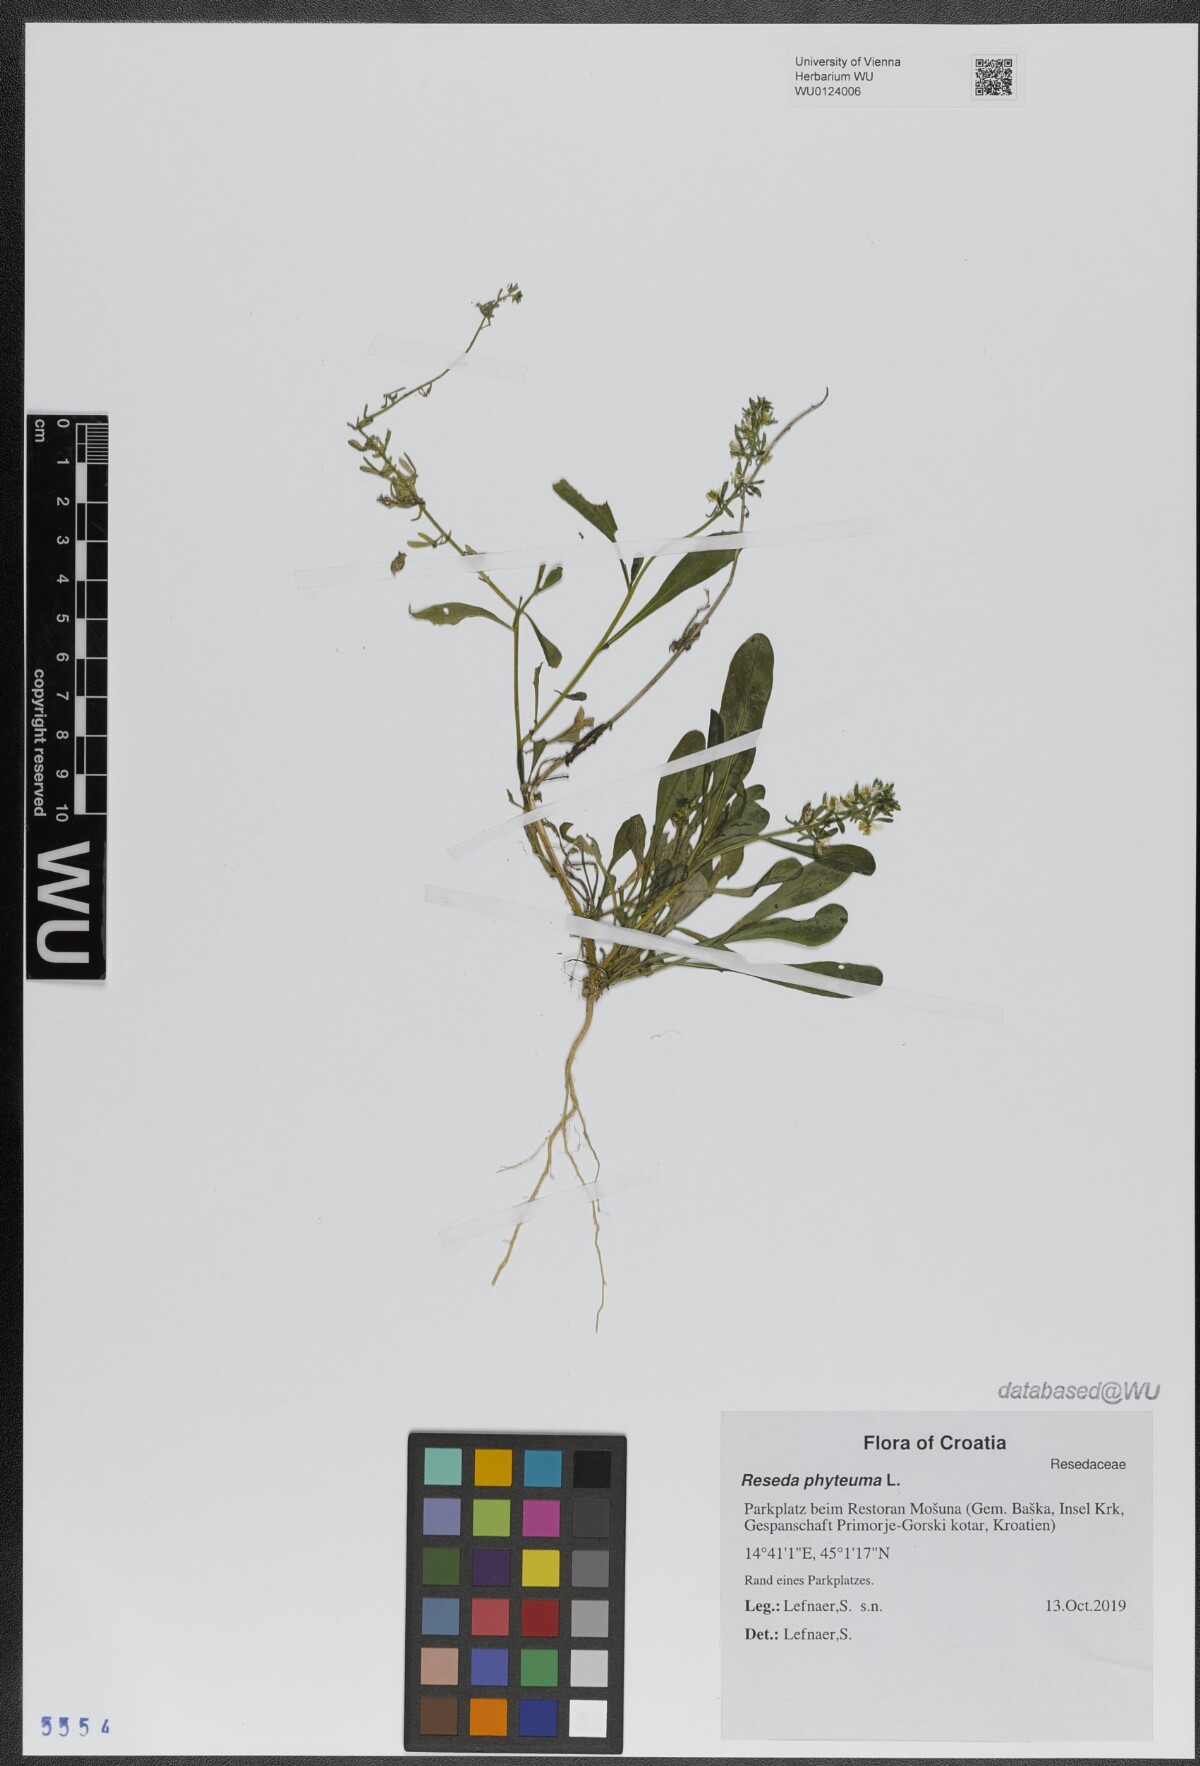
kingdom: Plantae
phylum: Tracheophyta
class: Magnoliopsida
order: Brassicales
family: Resedaceae
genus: Reseda
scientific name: Reseda phyteuma
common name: Corn mignonette
